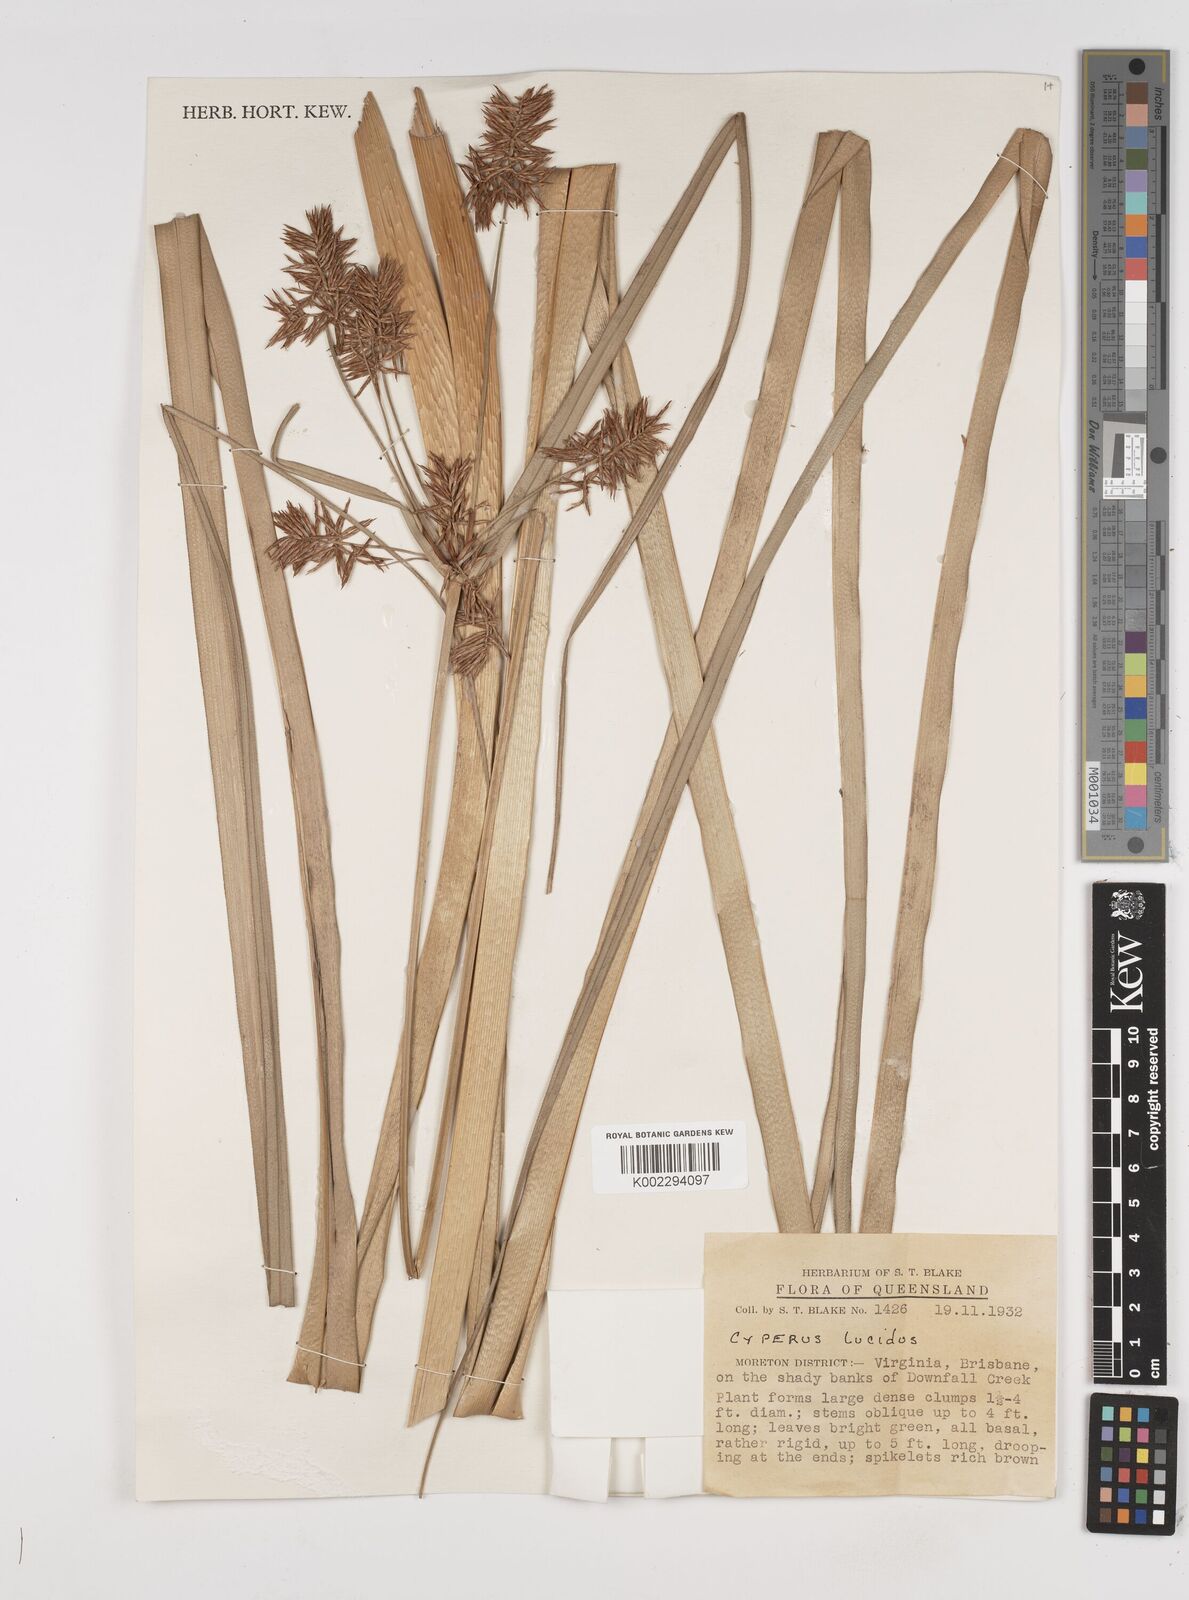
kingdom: Plantae
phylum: Tracheophyta
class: Liliopsida
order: Poales
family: Cyperaceae
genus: Cyperus
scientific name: Cyperus lucidus
